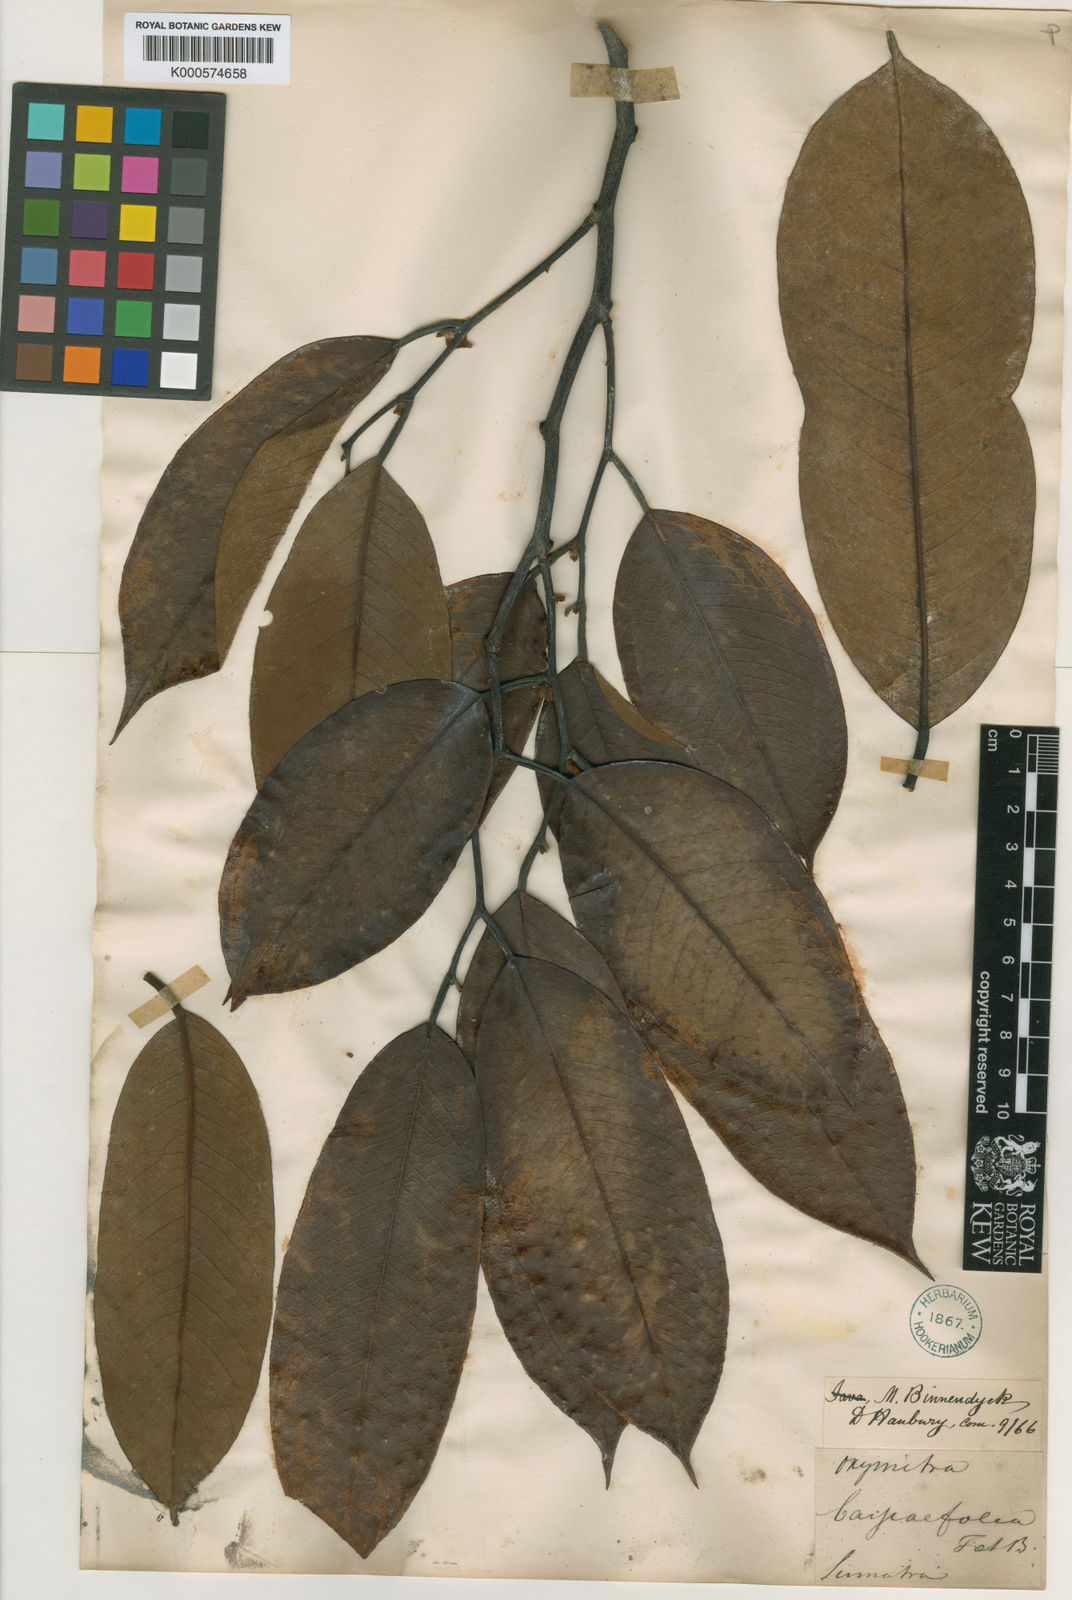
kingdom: Plantae
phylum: Tracheophyta
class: Magnoliopsida
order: Magnoliales
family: Annonaceae
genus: Pyramidanthe
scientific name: Pyramidanthe prismatica
